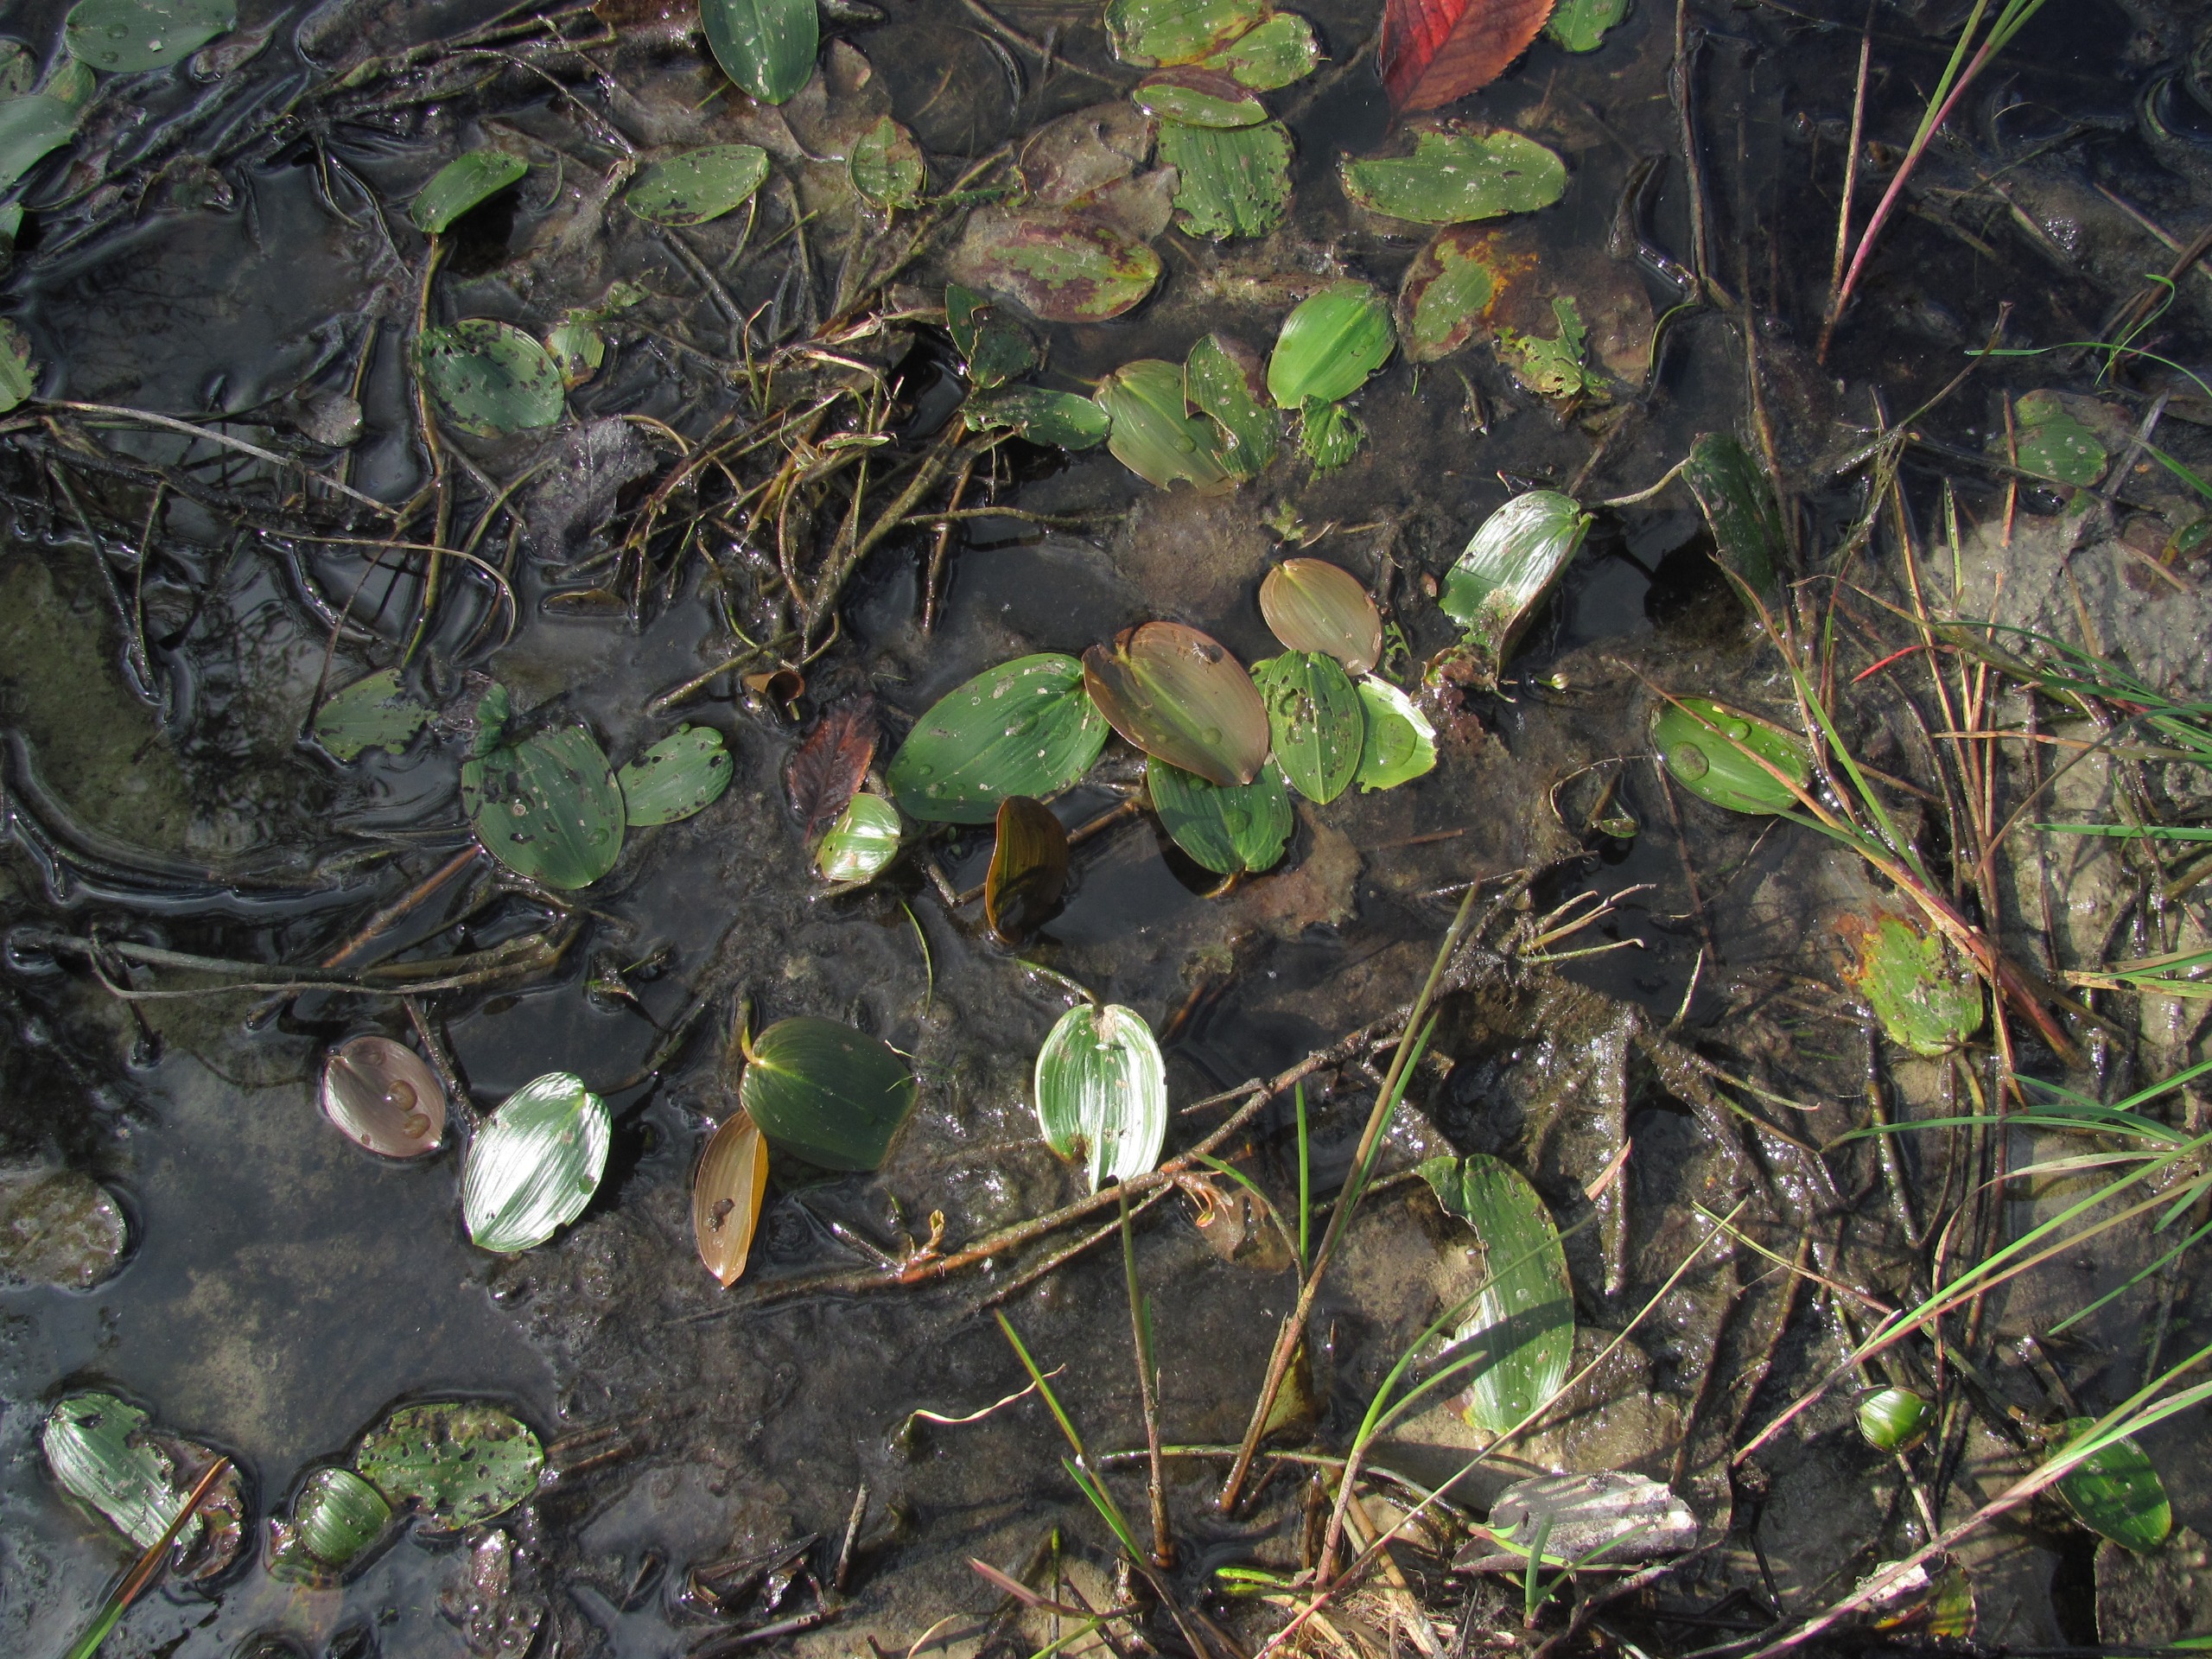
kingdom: Plantae
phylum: Tracheophyta
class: Liliopsida
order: Alismatales
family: Potamogetonaceae
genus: Potamogeton
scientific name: Potamogeton natans
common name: Svømmende vandaks
